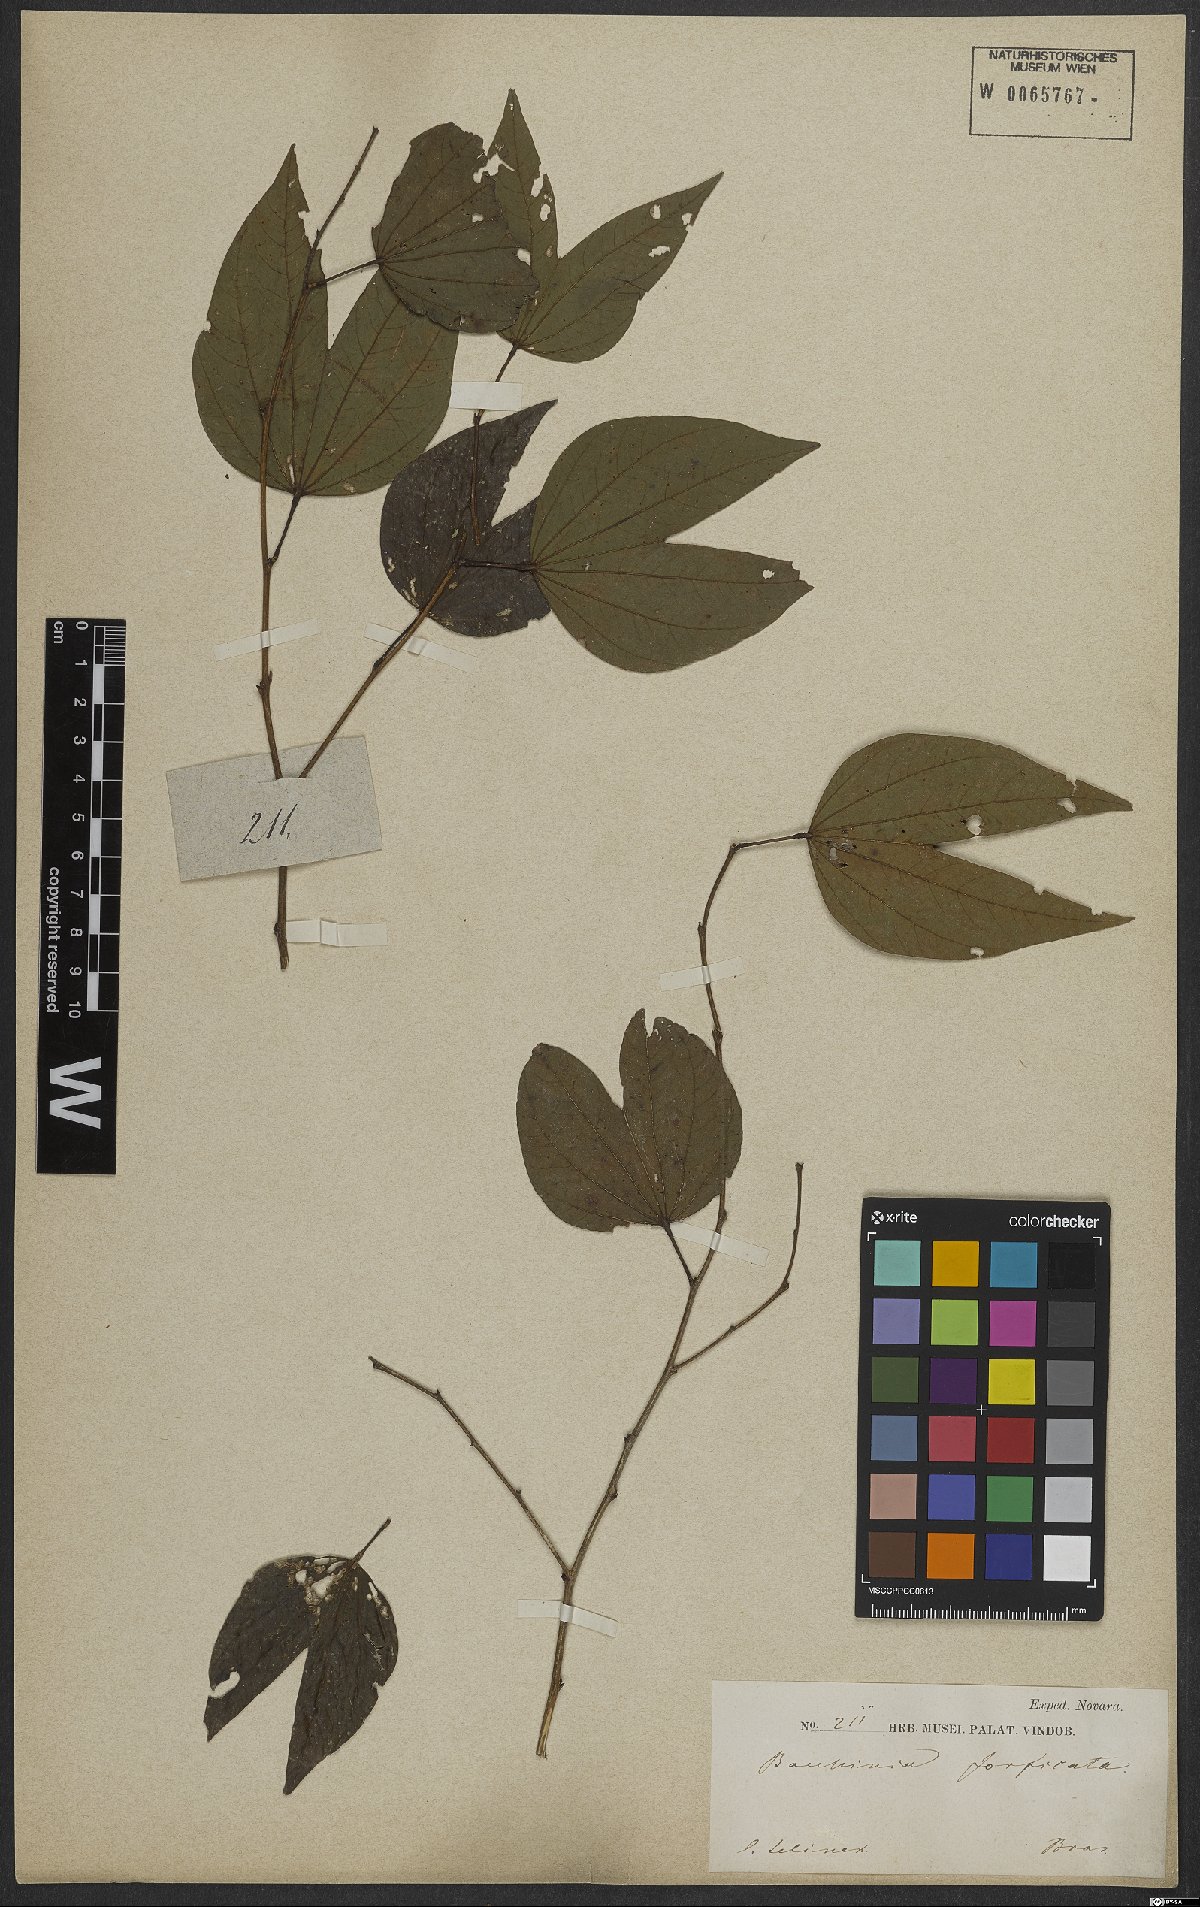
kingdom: Plantae
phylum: Tracheophyta
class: Magnoliopsida
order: Fabales
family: Fabaceae
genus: Bauhinia
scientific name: Bauhinia forficata
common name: Orchid tree
